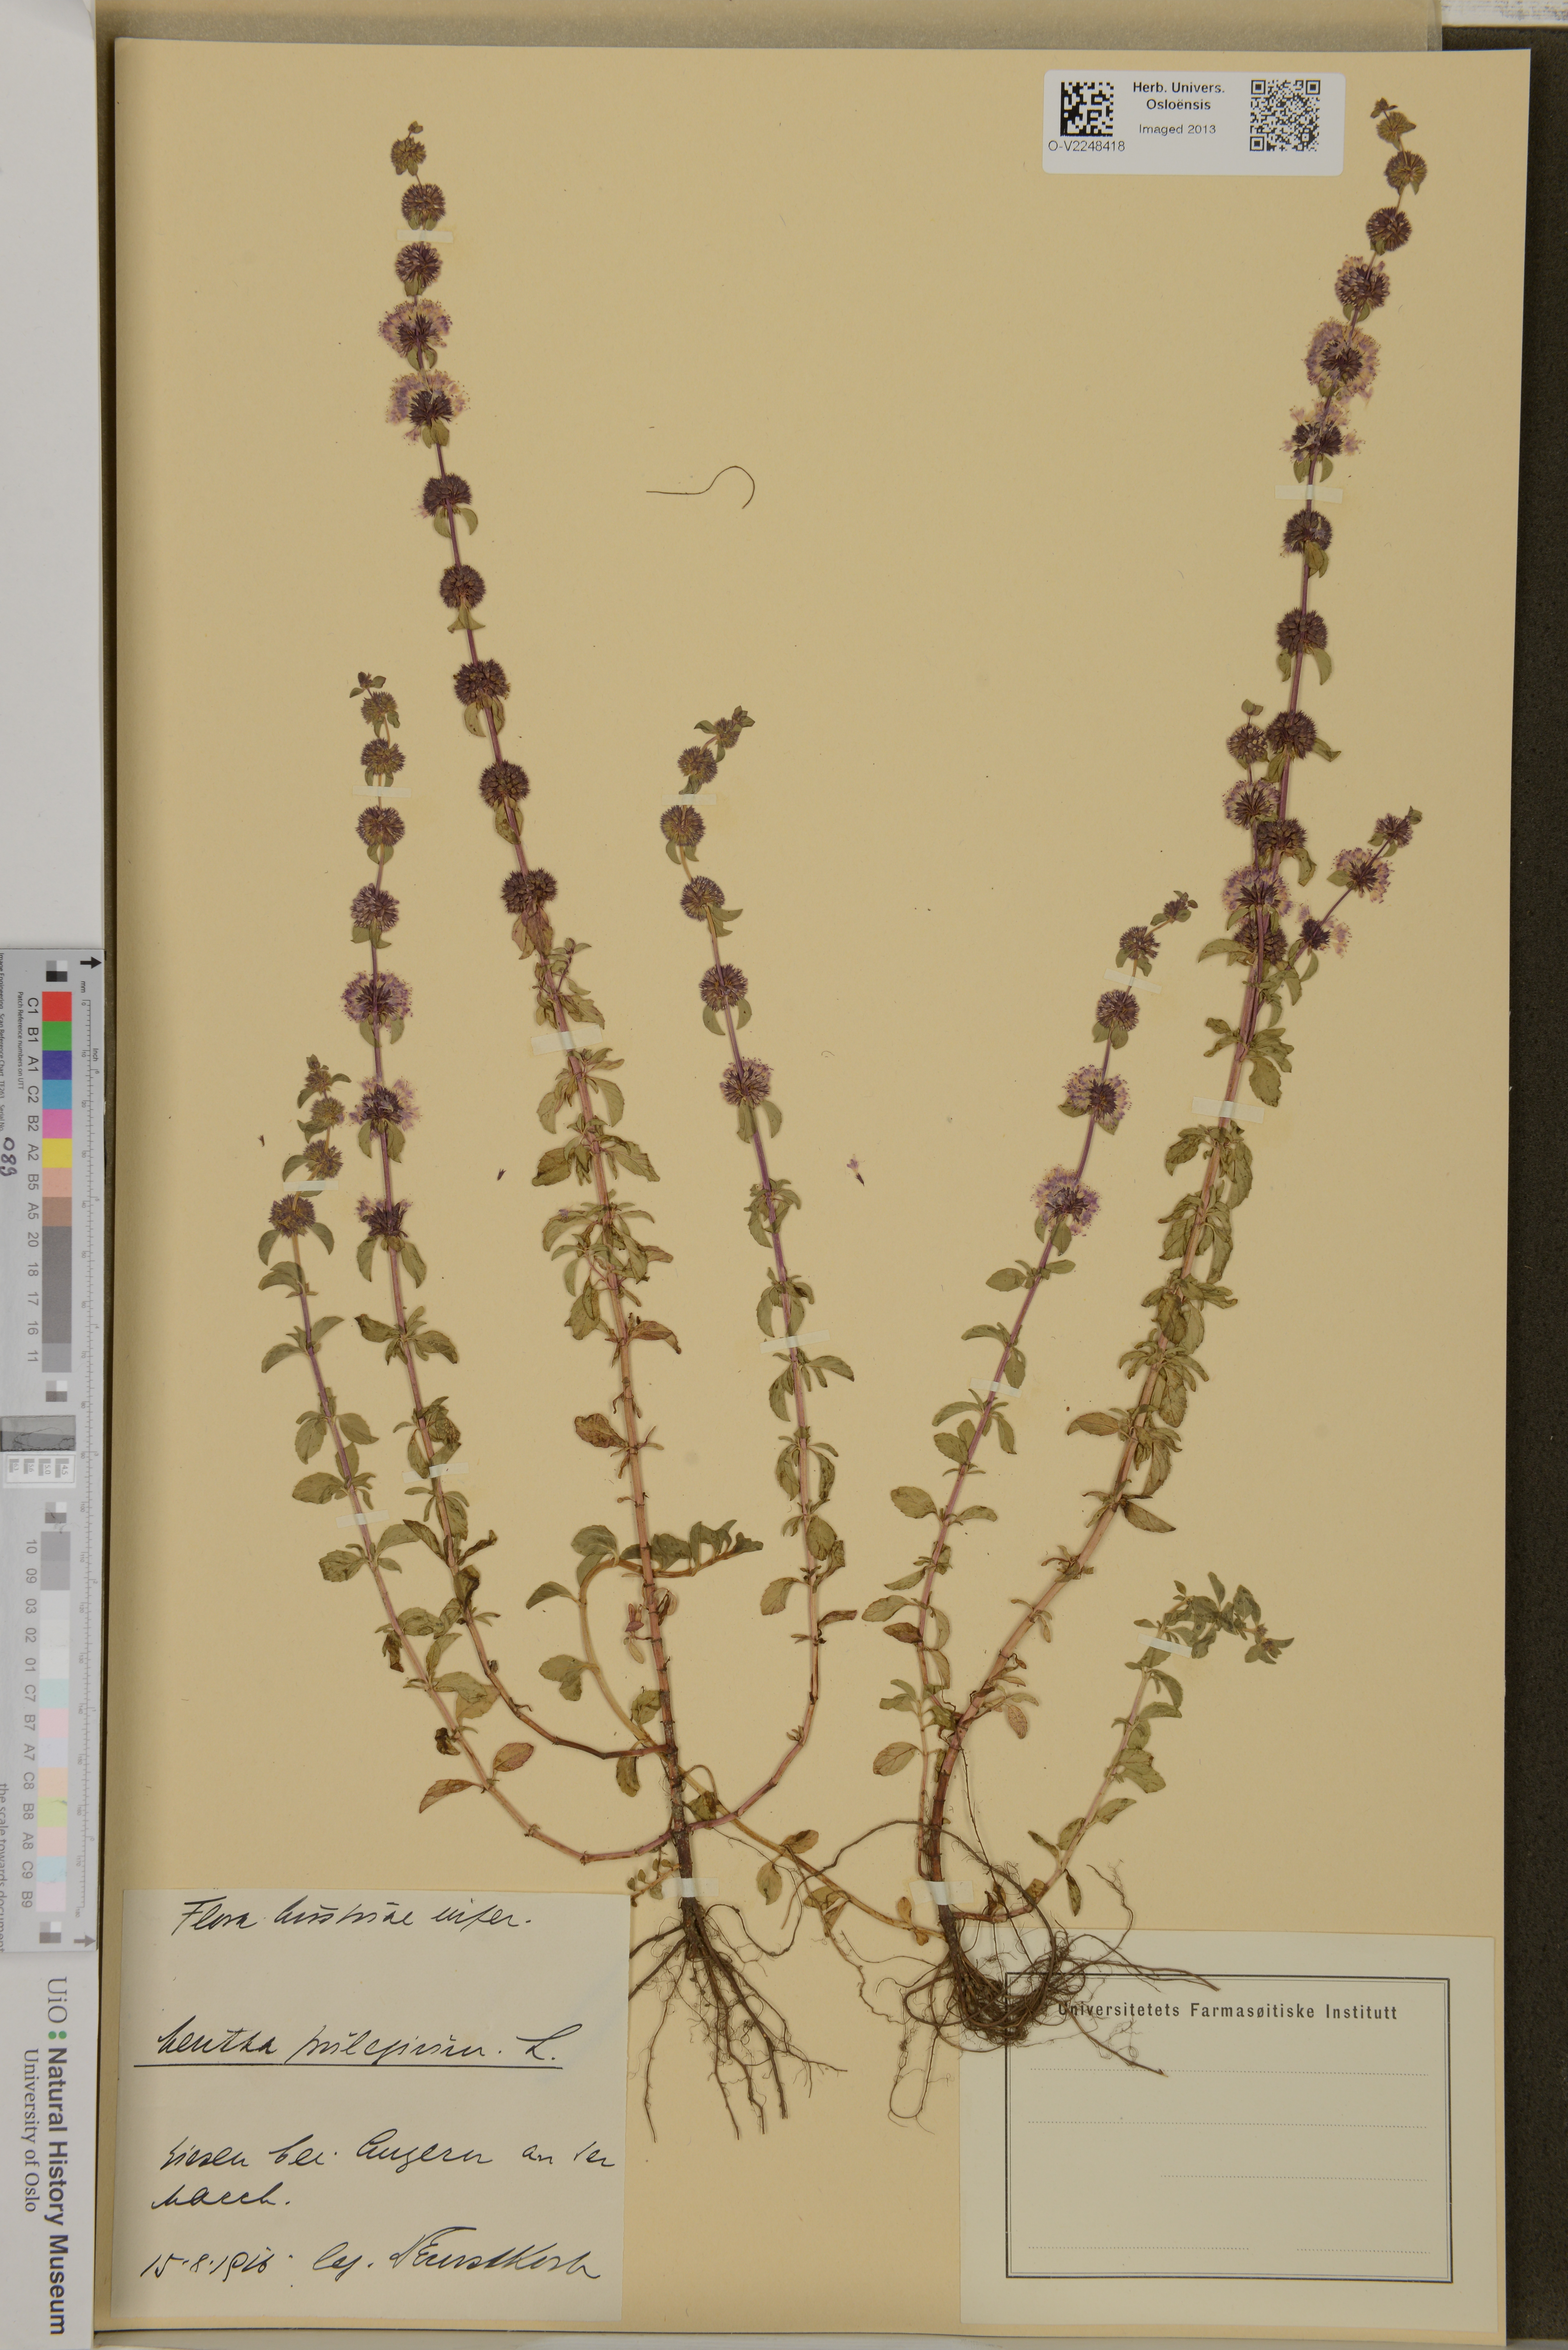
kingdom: Plantae
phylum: Tracheophyta
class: Magnoliopsida
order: Lamiales
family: Lamiaceae
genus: Mentha
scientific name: Mentha pulegium
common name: Pennyroyal
